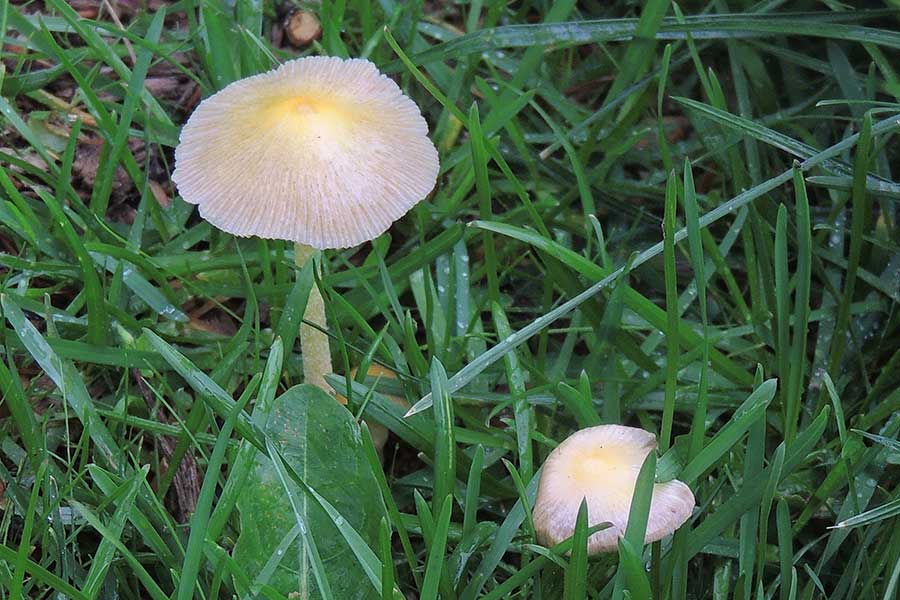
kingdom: Fungi
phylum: Basidiomycota
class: Agaricomycetes
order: Agaricales
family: Bolbitiaceae
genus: Bolbitius
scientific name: Bolbitius titubans
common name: almindelig gulhat
